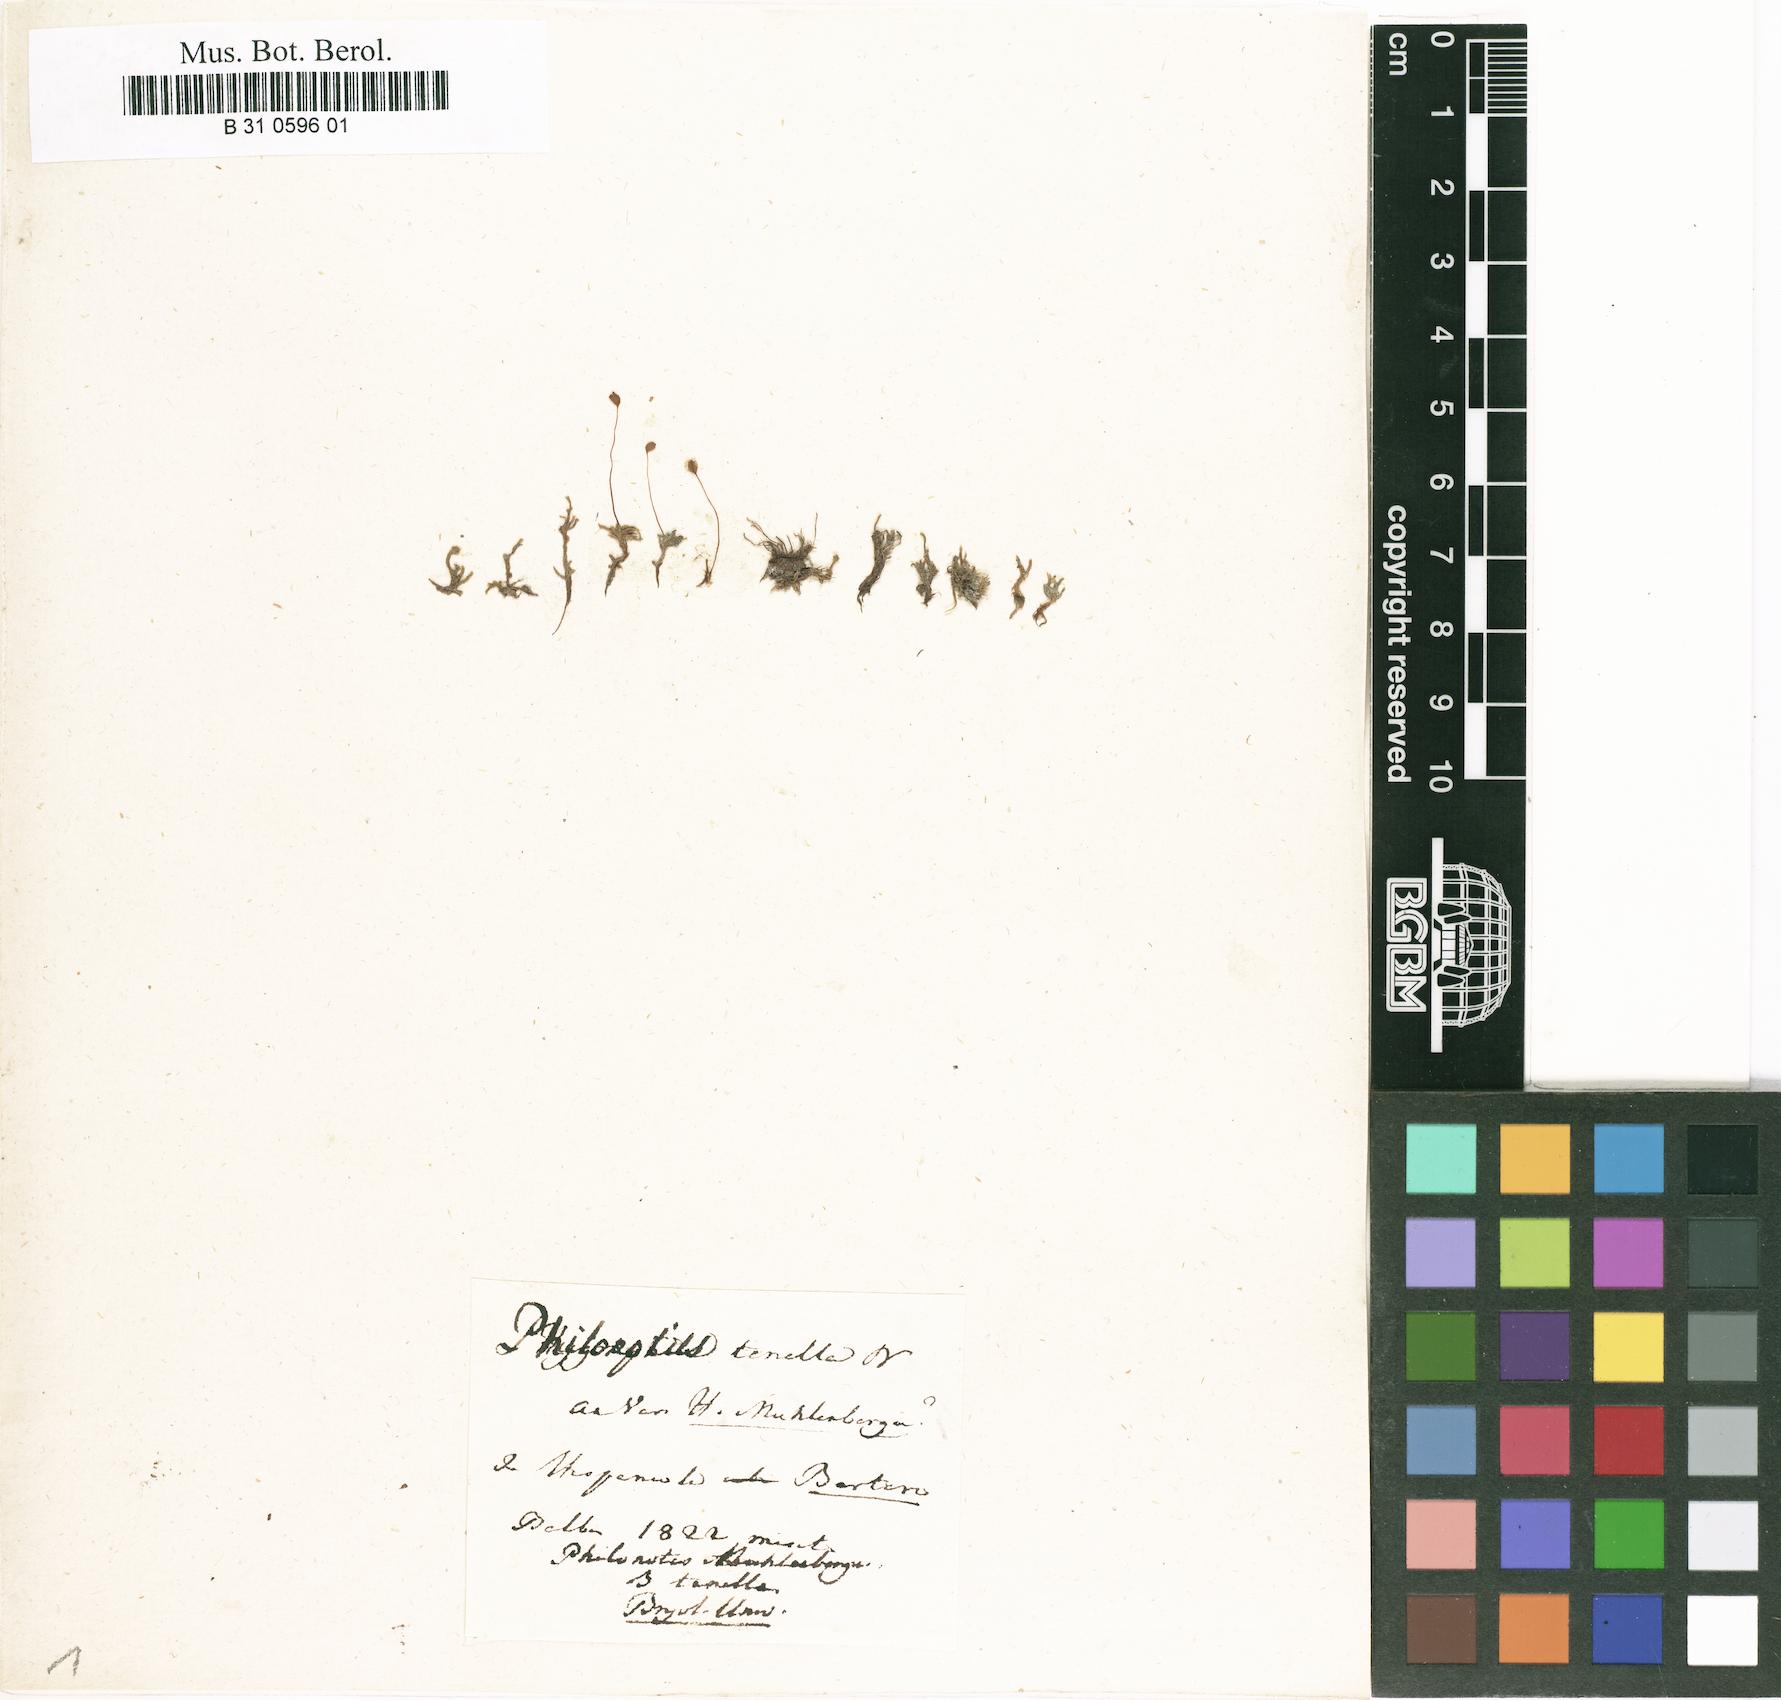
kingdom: Plantae
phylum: Bryophyta
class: Bryopsida
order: Bartramiales
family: Bartramiaceae
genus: Philonotis
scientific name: Philonotis muhlenbergii
